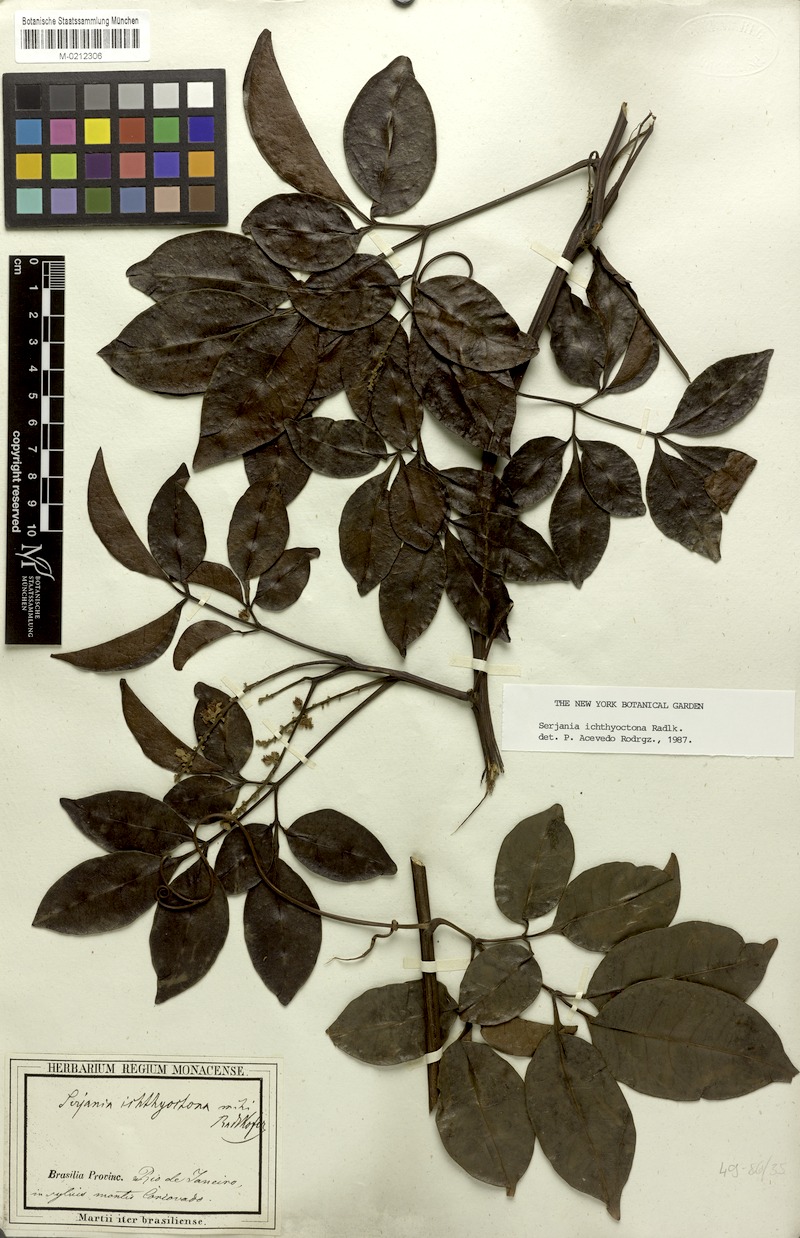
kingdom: Plantae
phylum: Tracheophyta
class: Magnoliopsida
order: Sapindales
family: Sapindaceae
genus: Serjania
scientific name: Serjania ichthyctona
